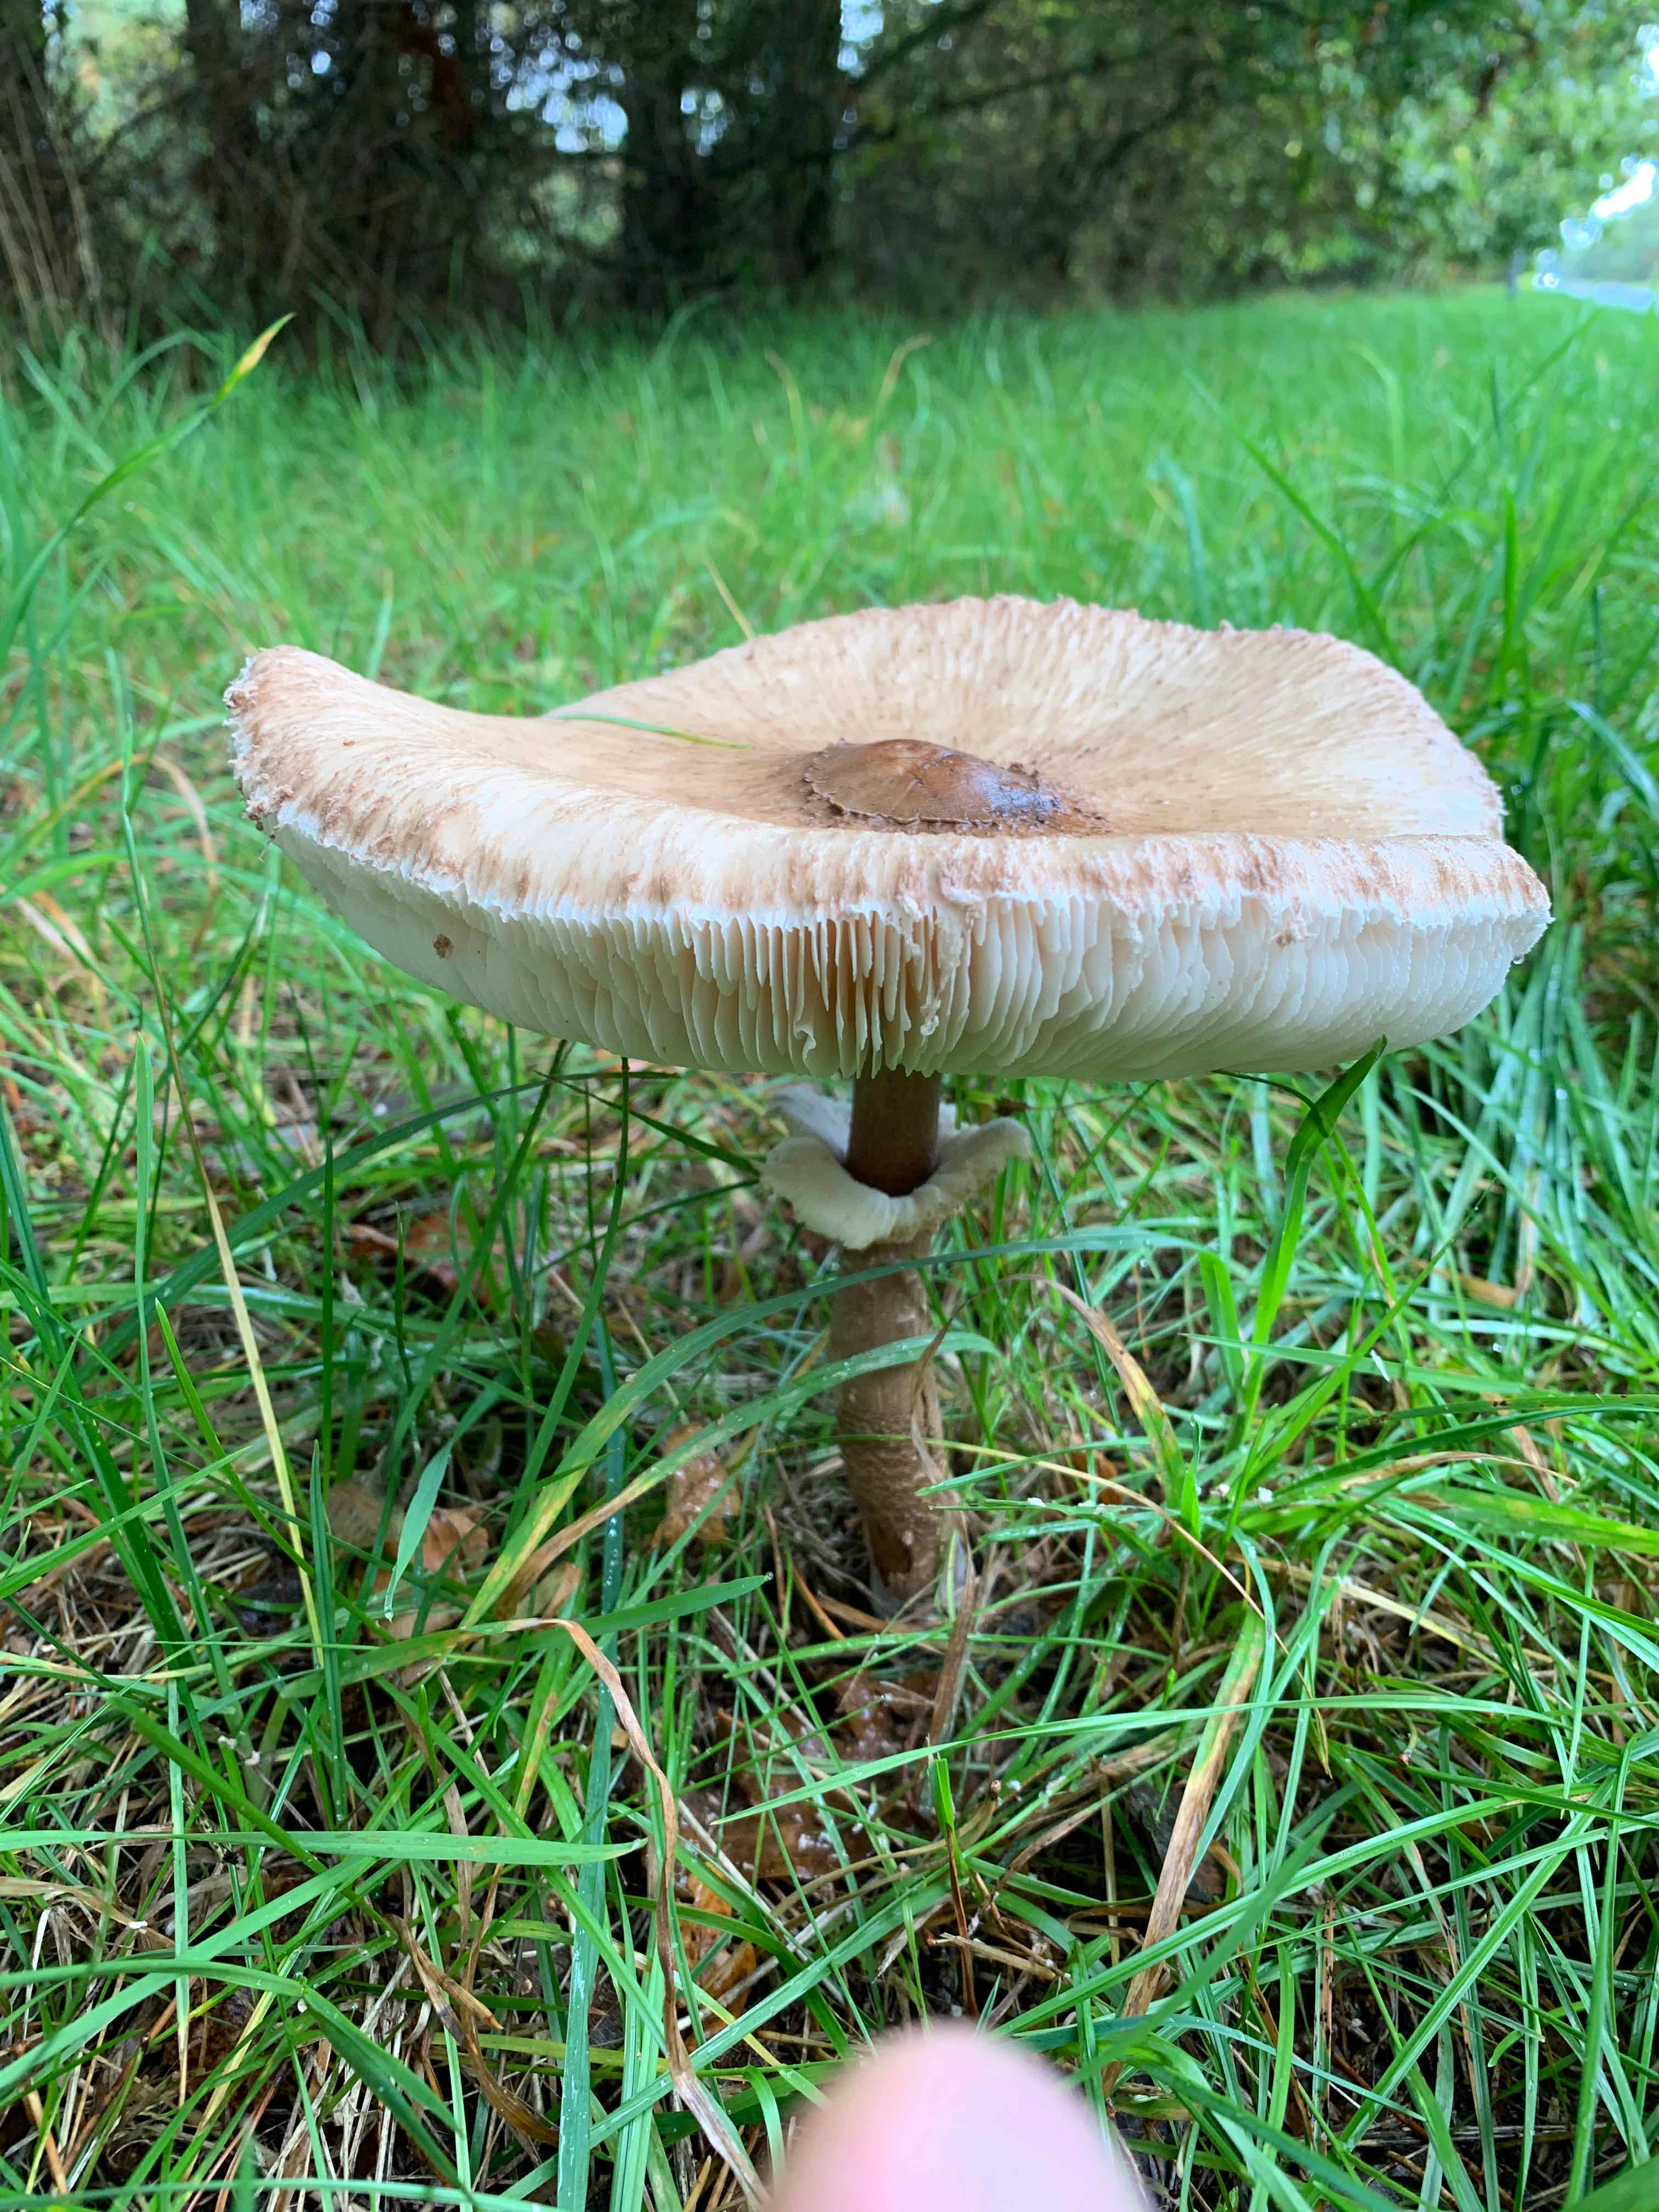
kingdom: Fungi
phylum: Basidiomycota
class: Agaricomycetes
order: Agaricales
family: Agaricaceae
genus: Macrolepiota
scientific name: Macrolepiota procera
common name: stor kæmpeparasolhat
